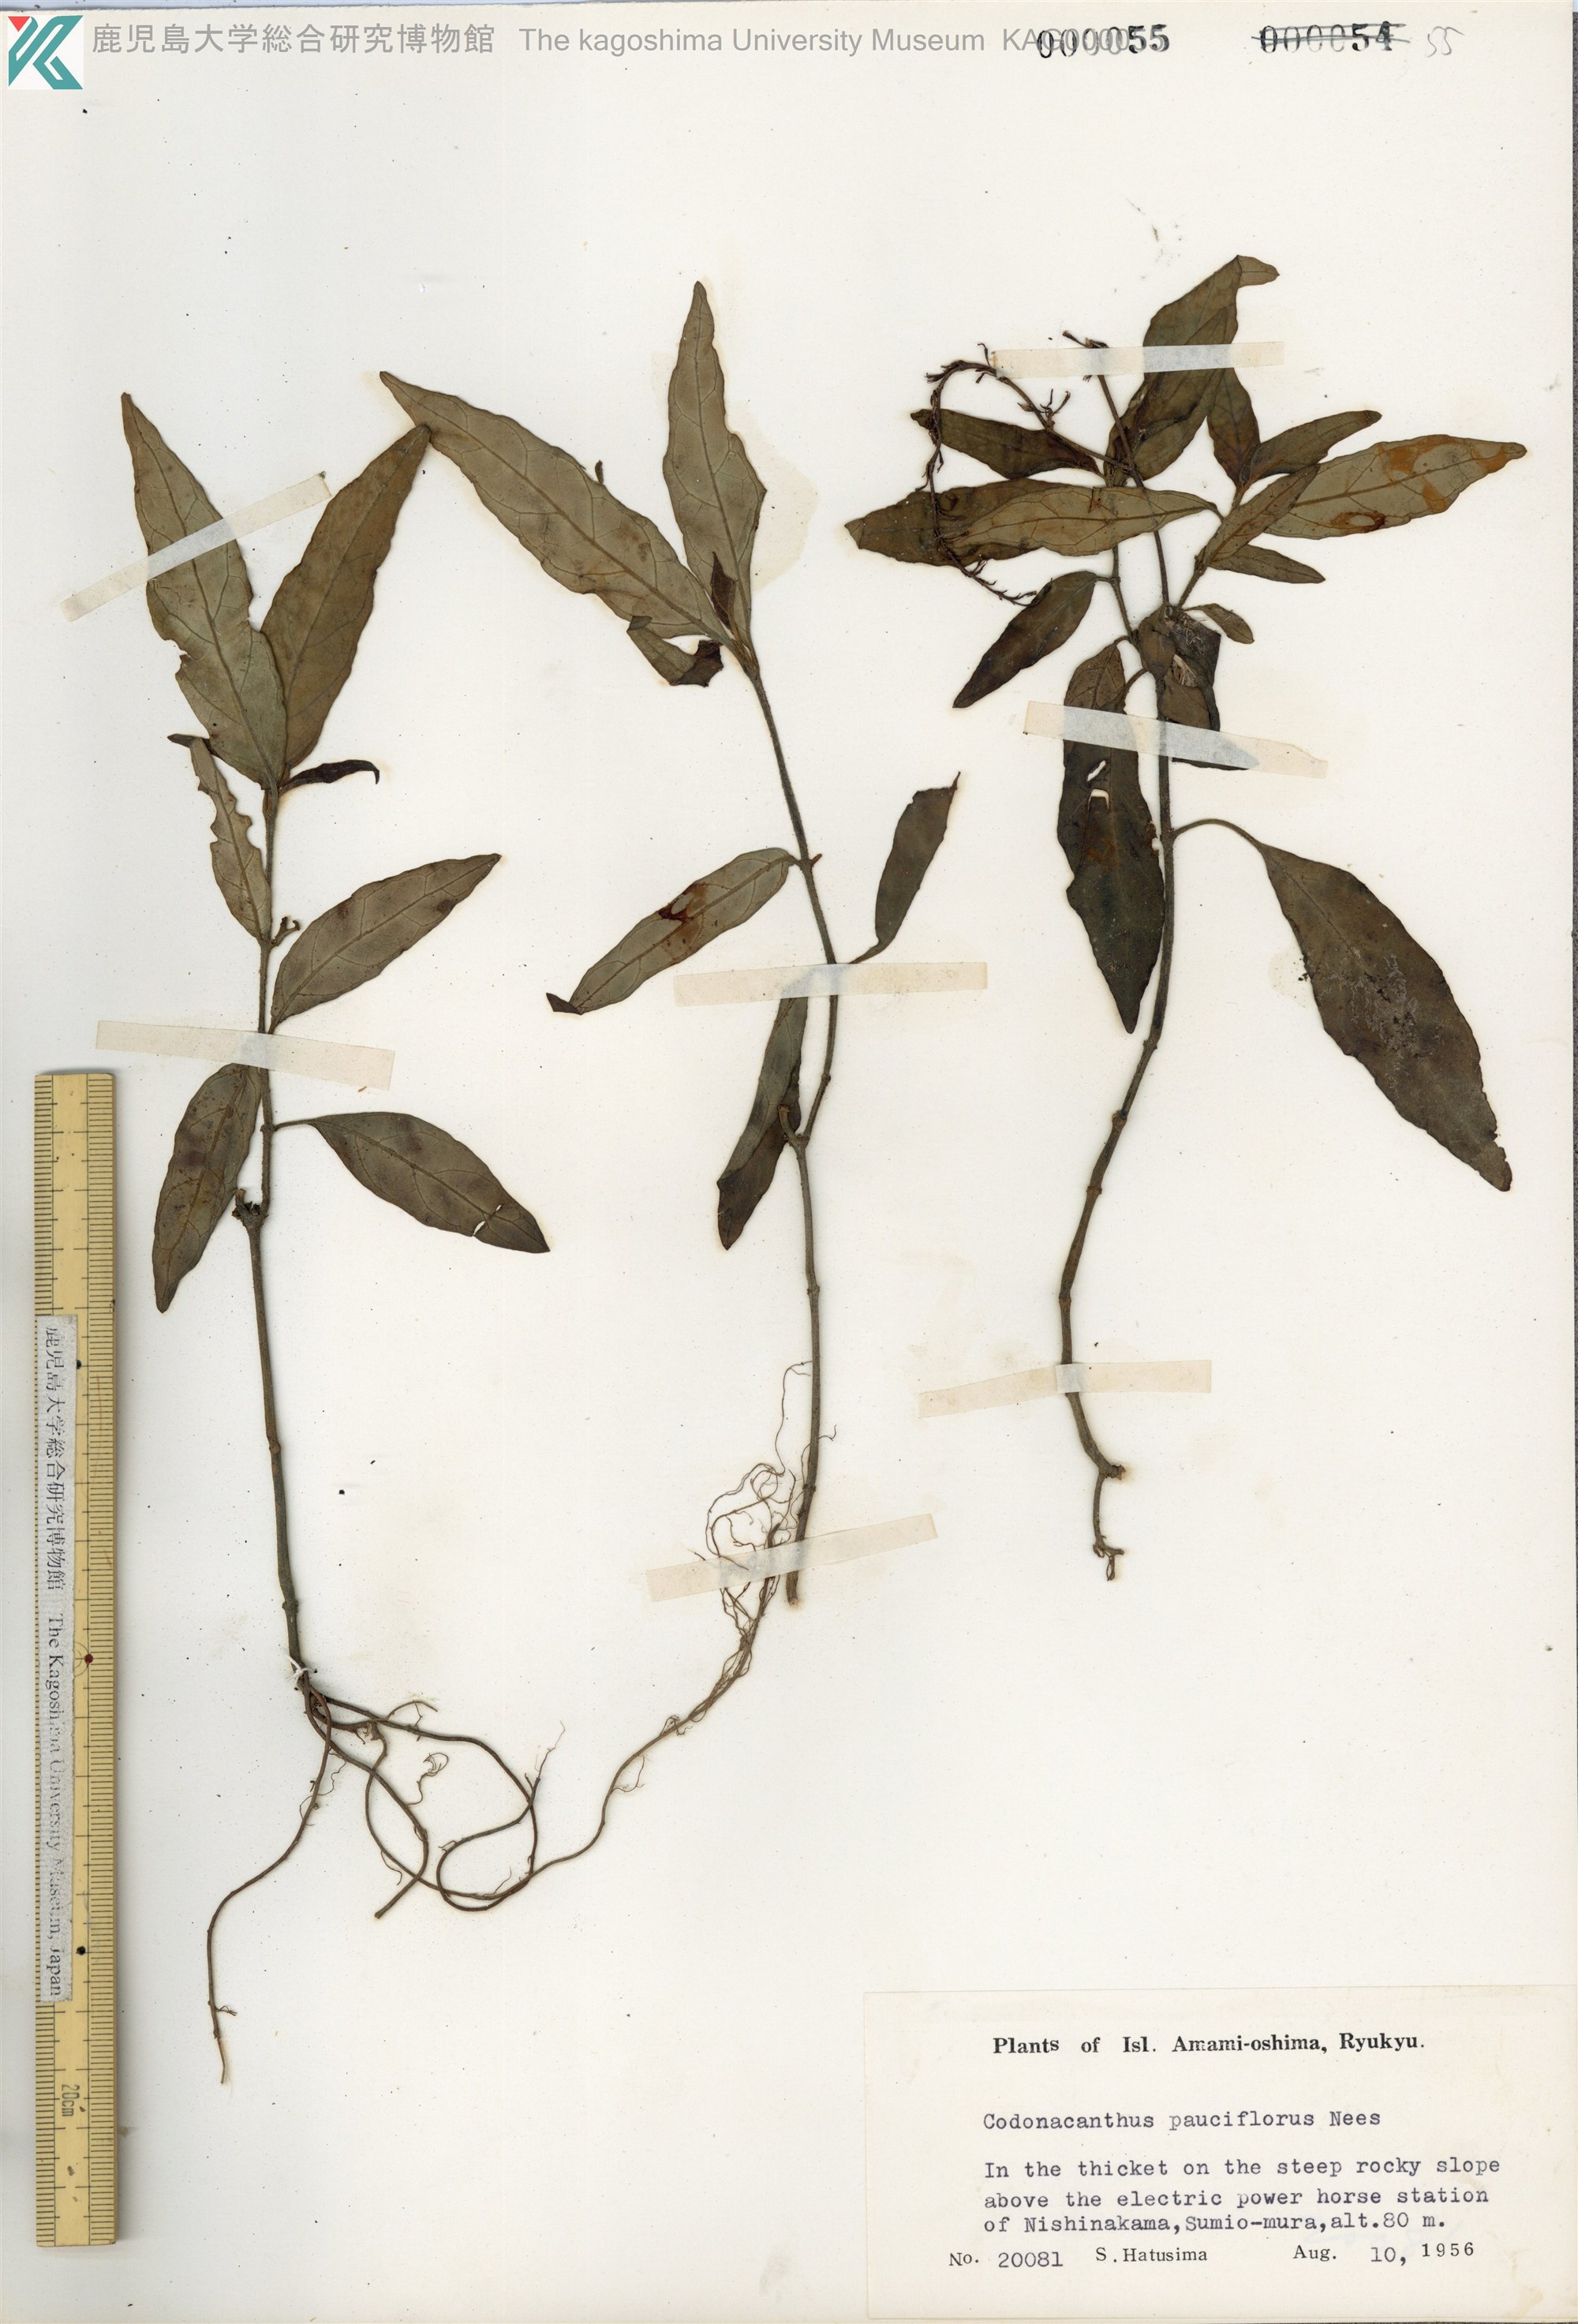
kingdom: Plantae
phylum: Tracheophyta
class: Magnoliopsida
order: Lamiales
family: Acanthaceae
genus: Codonacanthus
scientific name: Codonacanthus pauciflorus
